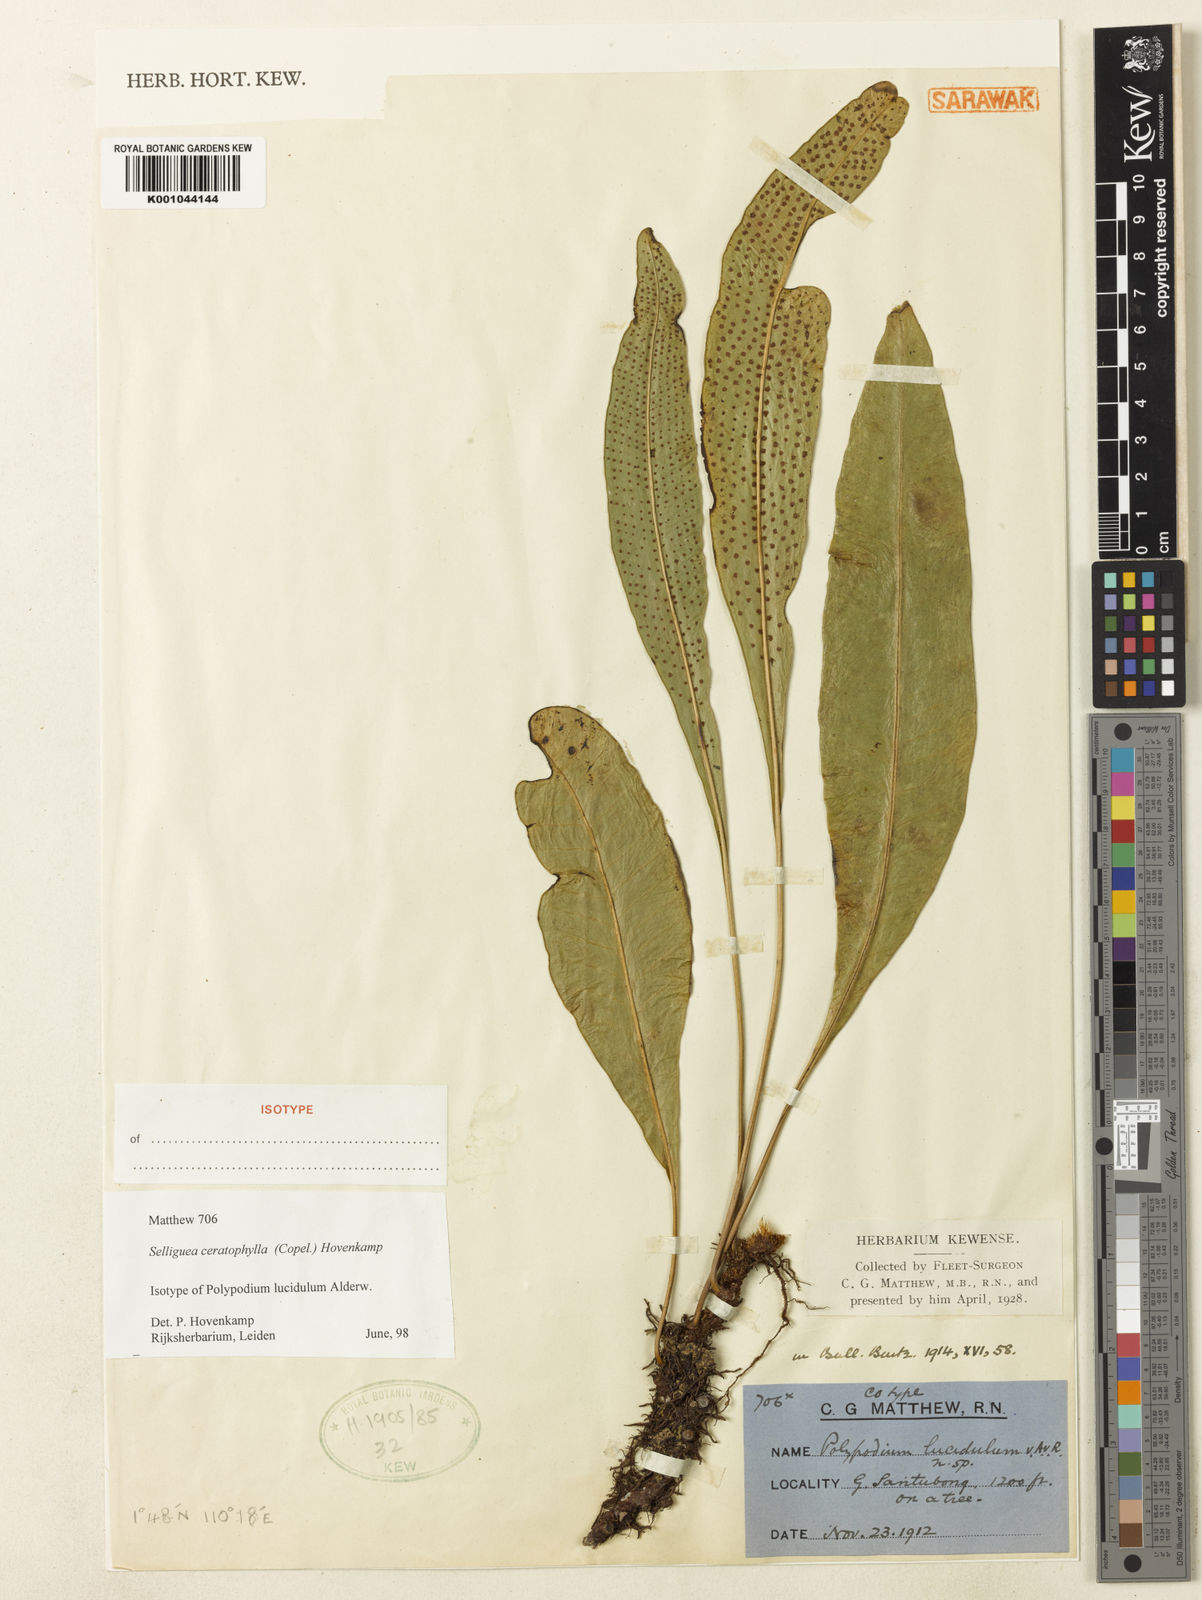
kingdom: Plantae
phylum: Tracheophyta
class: Polypodiopsida
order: Polypodiales
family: Polypodiaceae
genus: Selliguea
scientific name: Selliguea ceratophylla
